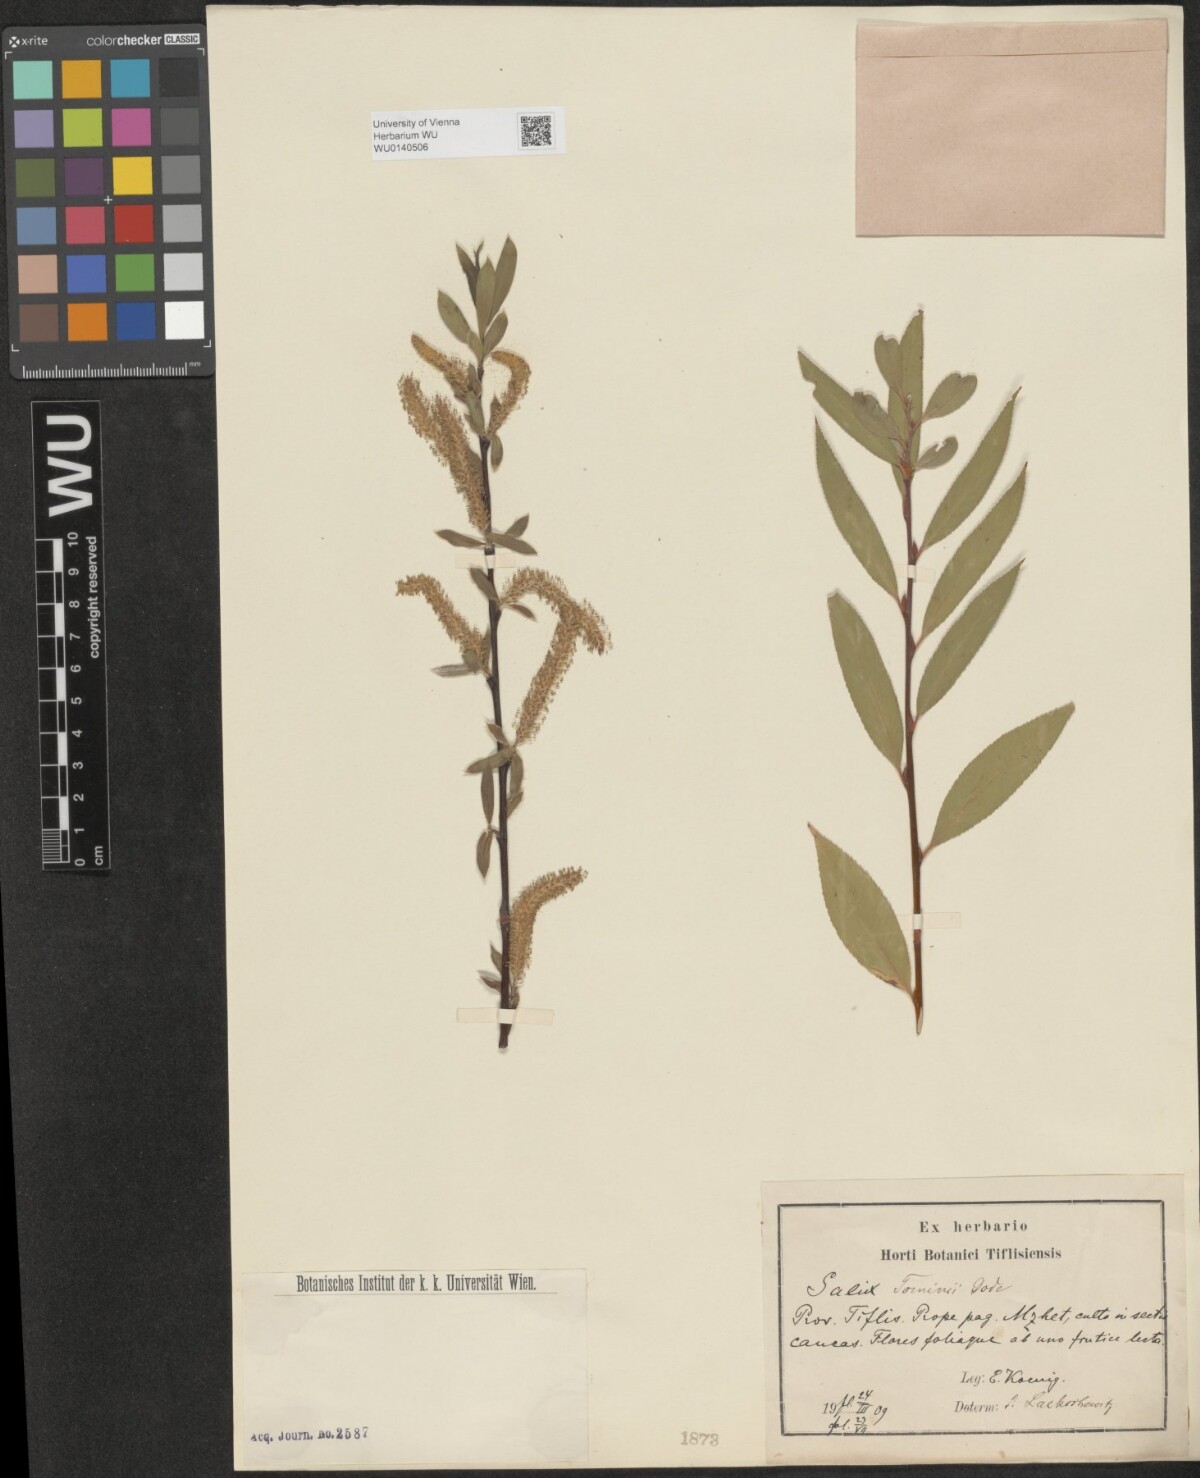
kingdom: Plantae
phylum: Tracheophyta
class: Magnoliopsida
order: Malpighiales
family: Salicaceae
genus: Salix
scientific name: Salix tominii
